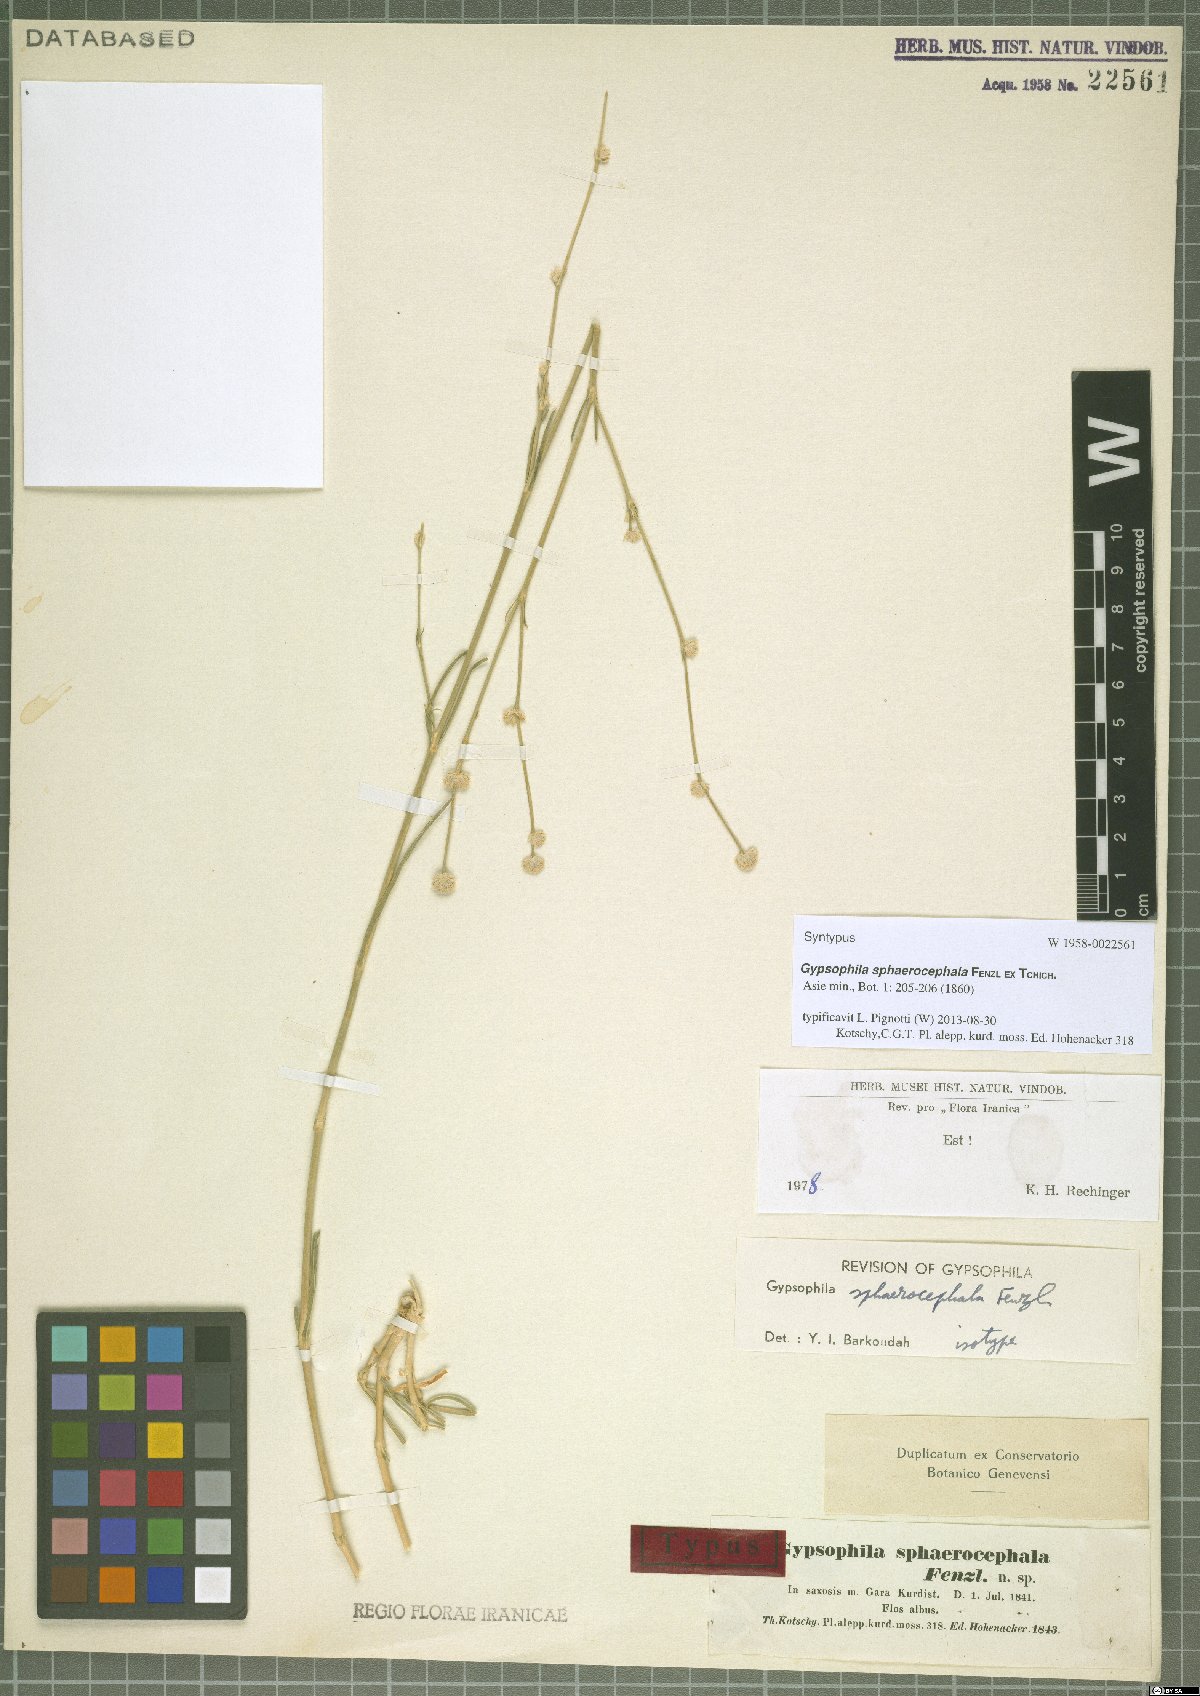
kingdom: Plantae
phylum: Tracheophyta
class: Magnoliopsida
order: Caryophyllales
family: Caryophyllaceae
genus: Gypsophila
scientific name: Gypsophila laricina
